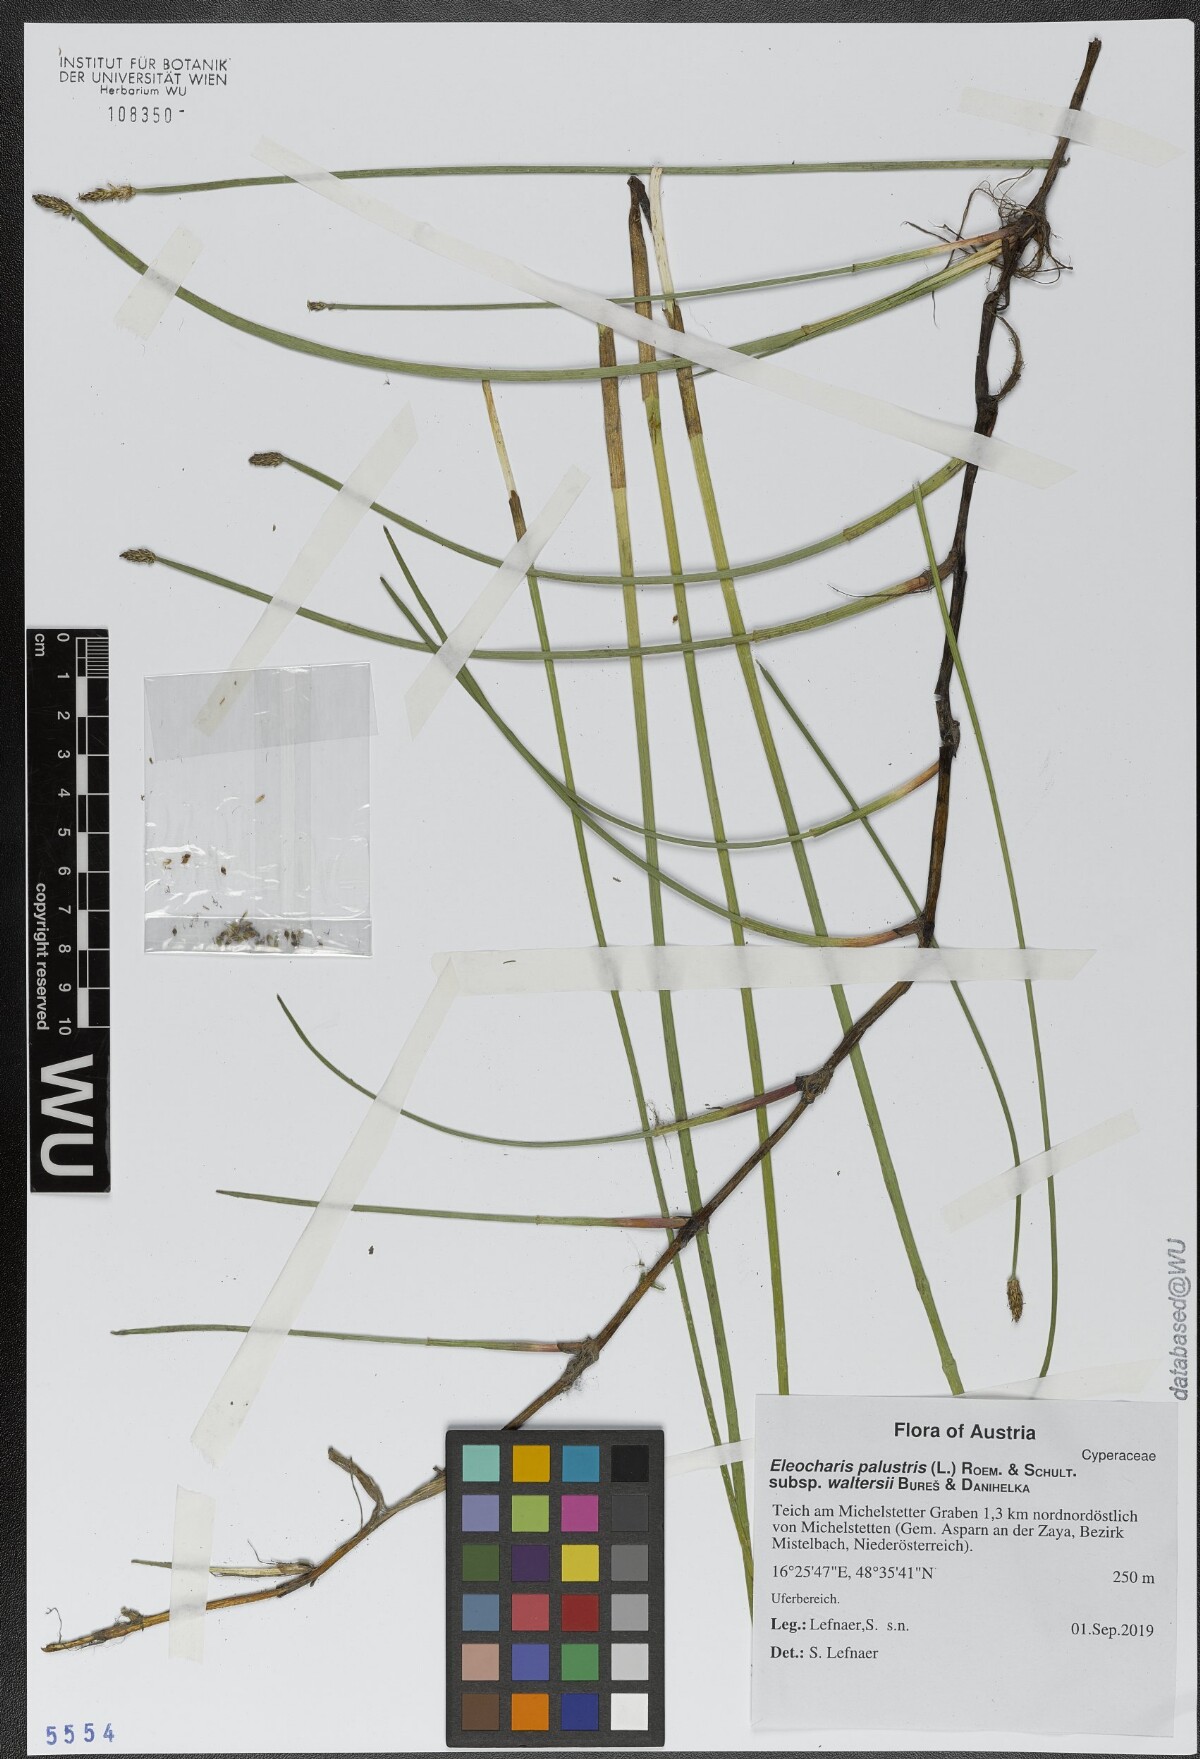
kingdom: Plantae
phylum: Tracheophyta
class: Liliopsida
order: Poales
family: Cyperaceae
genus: Eleocharis
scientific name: Eleocharis palustris
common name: Common spike-rush
